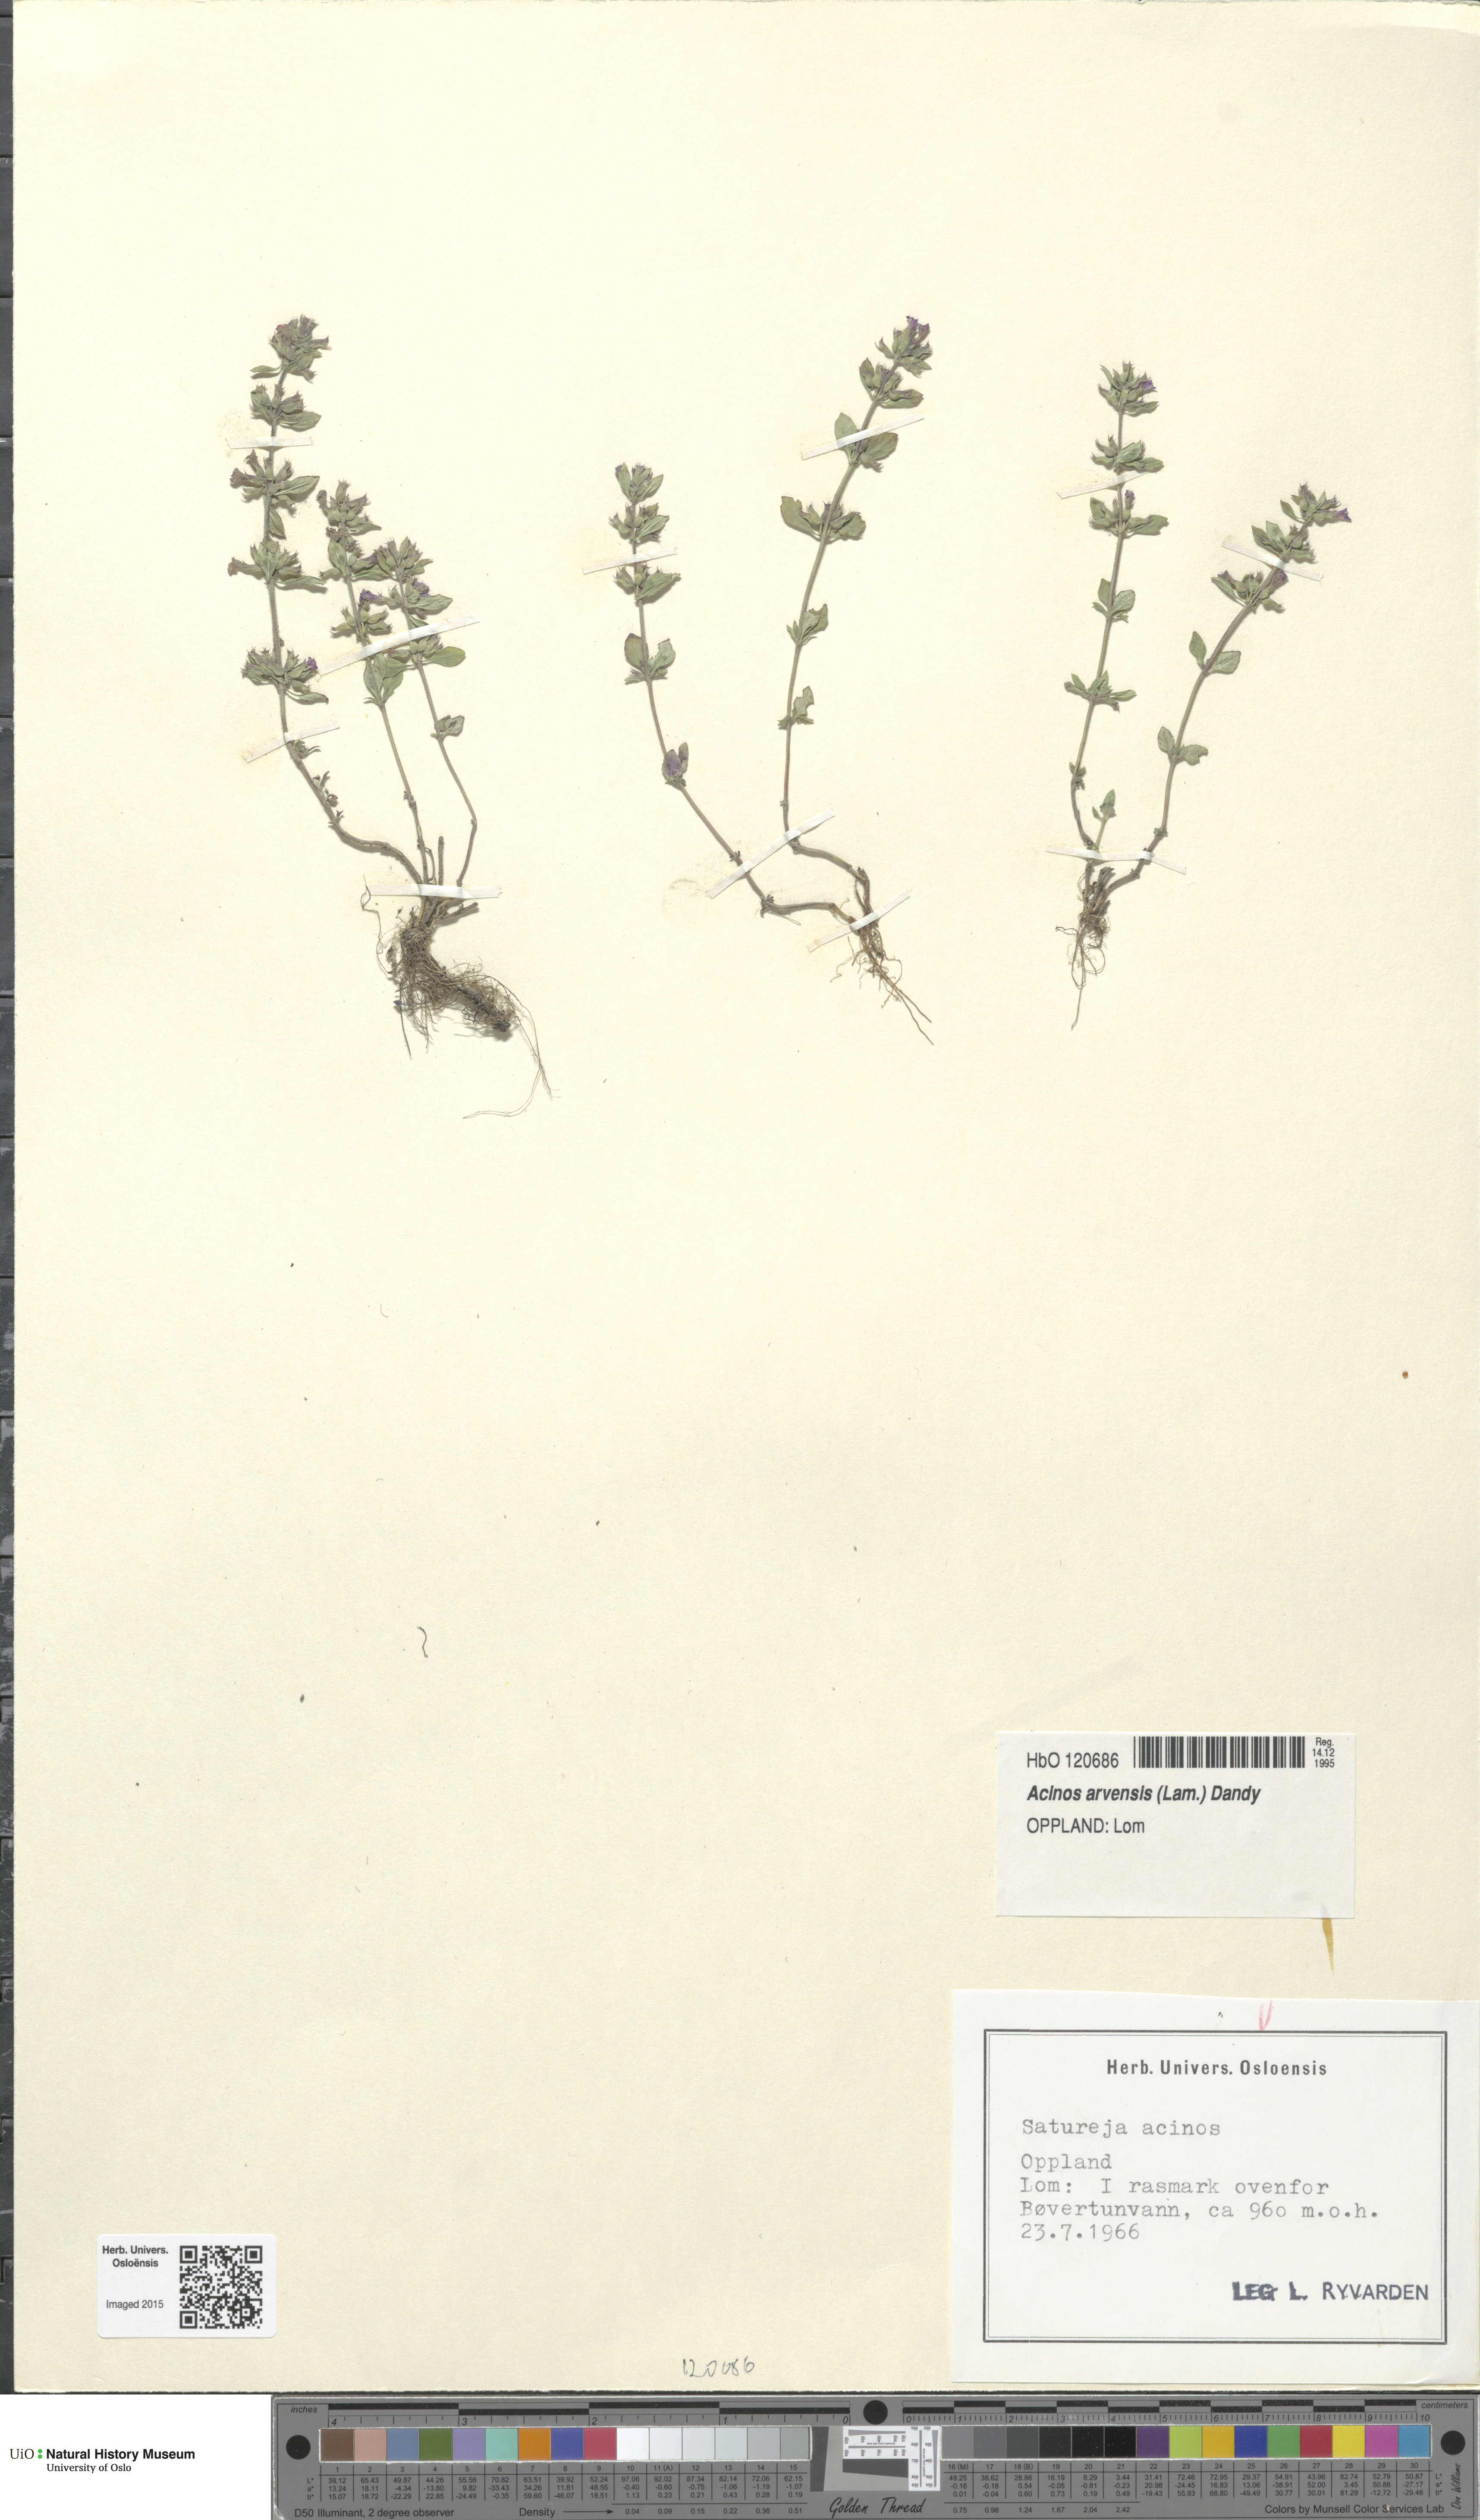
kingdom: Plantae
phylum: Tracheophyta
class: Magnoliopsida
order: Lamiales
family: Lamiaceae
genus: Clinopodium
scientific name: Clinopodium acinos
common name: Basil thyme
